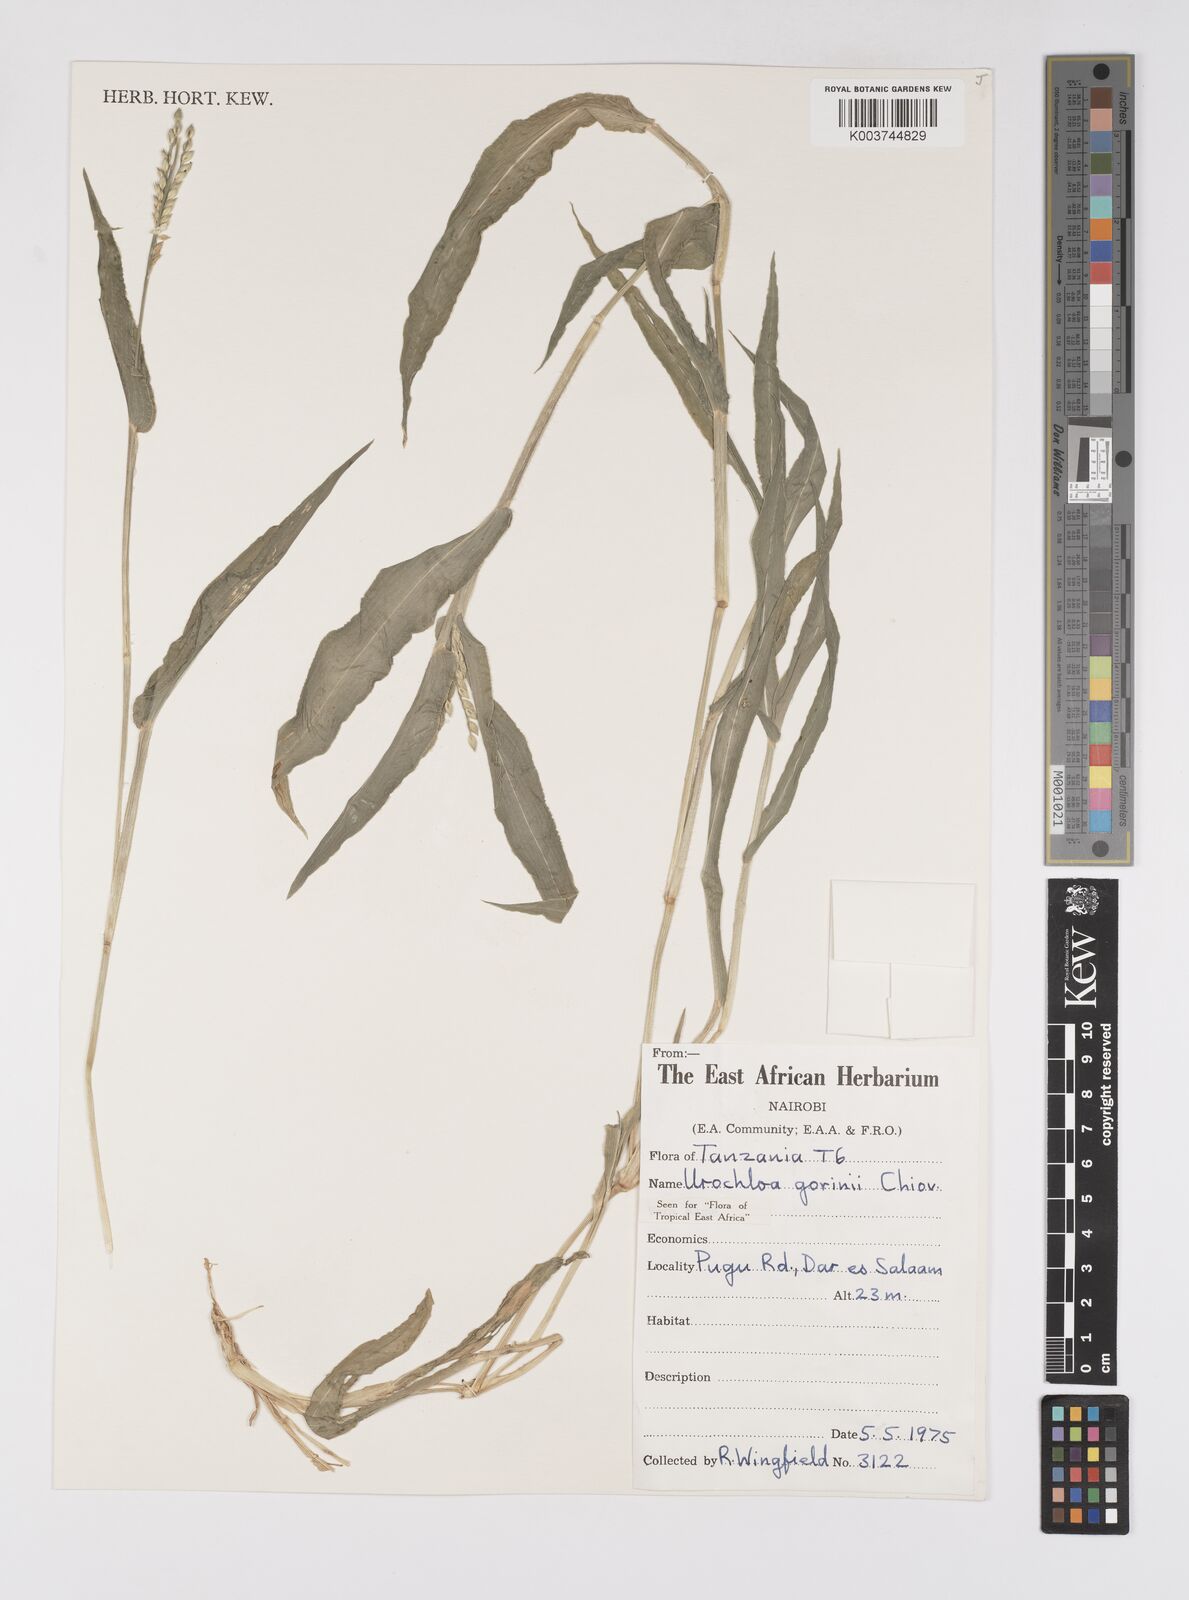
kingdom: Plantae
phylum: Tracheophyta
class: Liliopsida
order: Poales
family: Poaceae
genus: Urochloa
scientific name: Urochloa rudis
